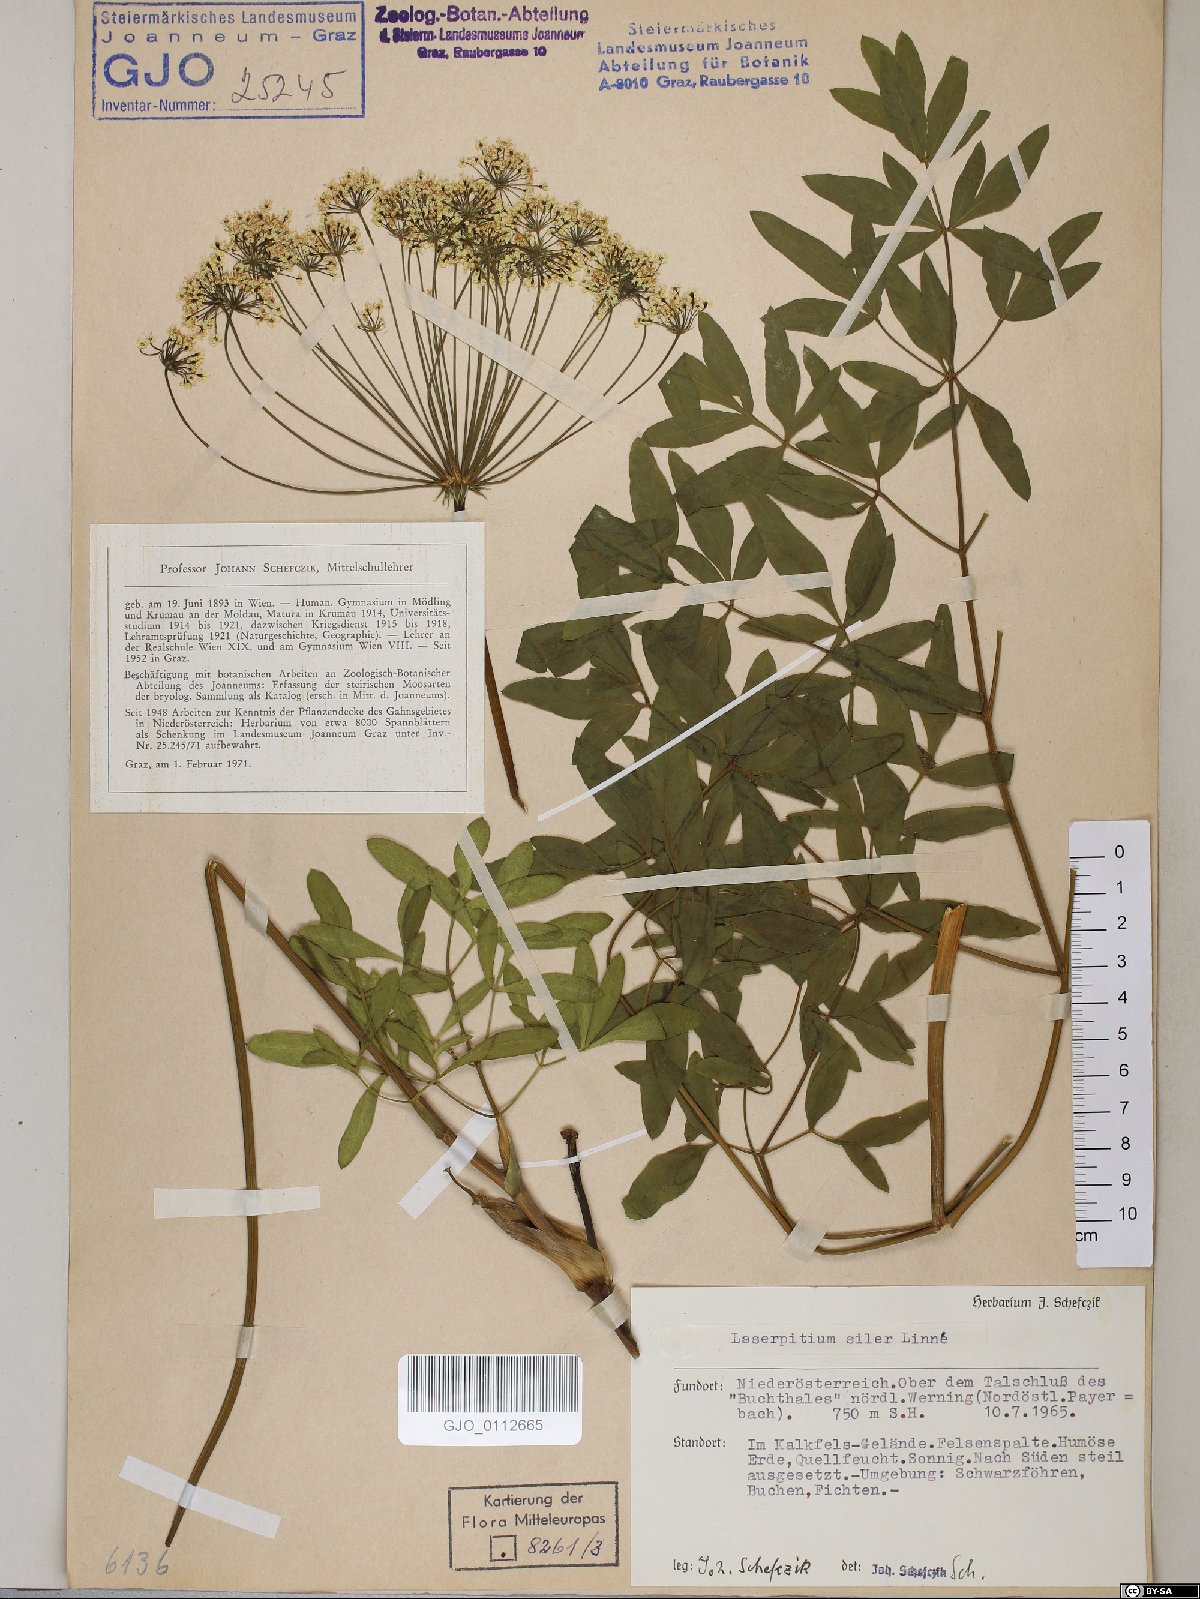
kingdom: Plantae
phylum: Tracheophyta
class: Magnoliopsida
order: Apiales
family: Apiaceae
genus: Siler
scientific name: Siler montanum
